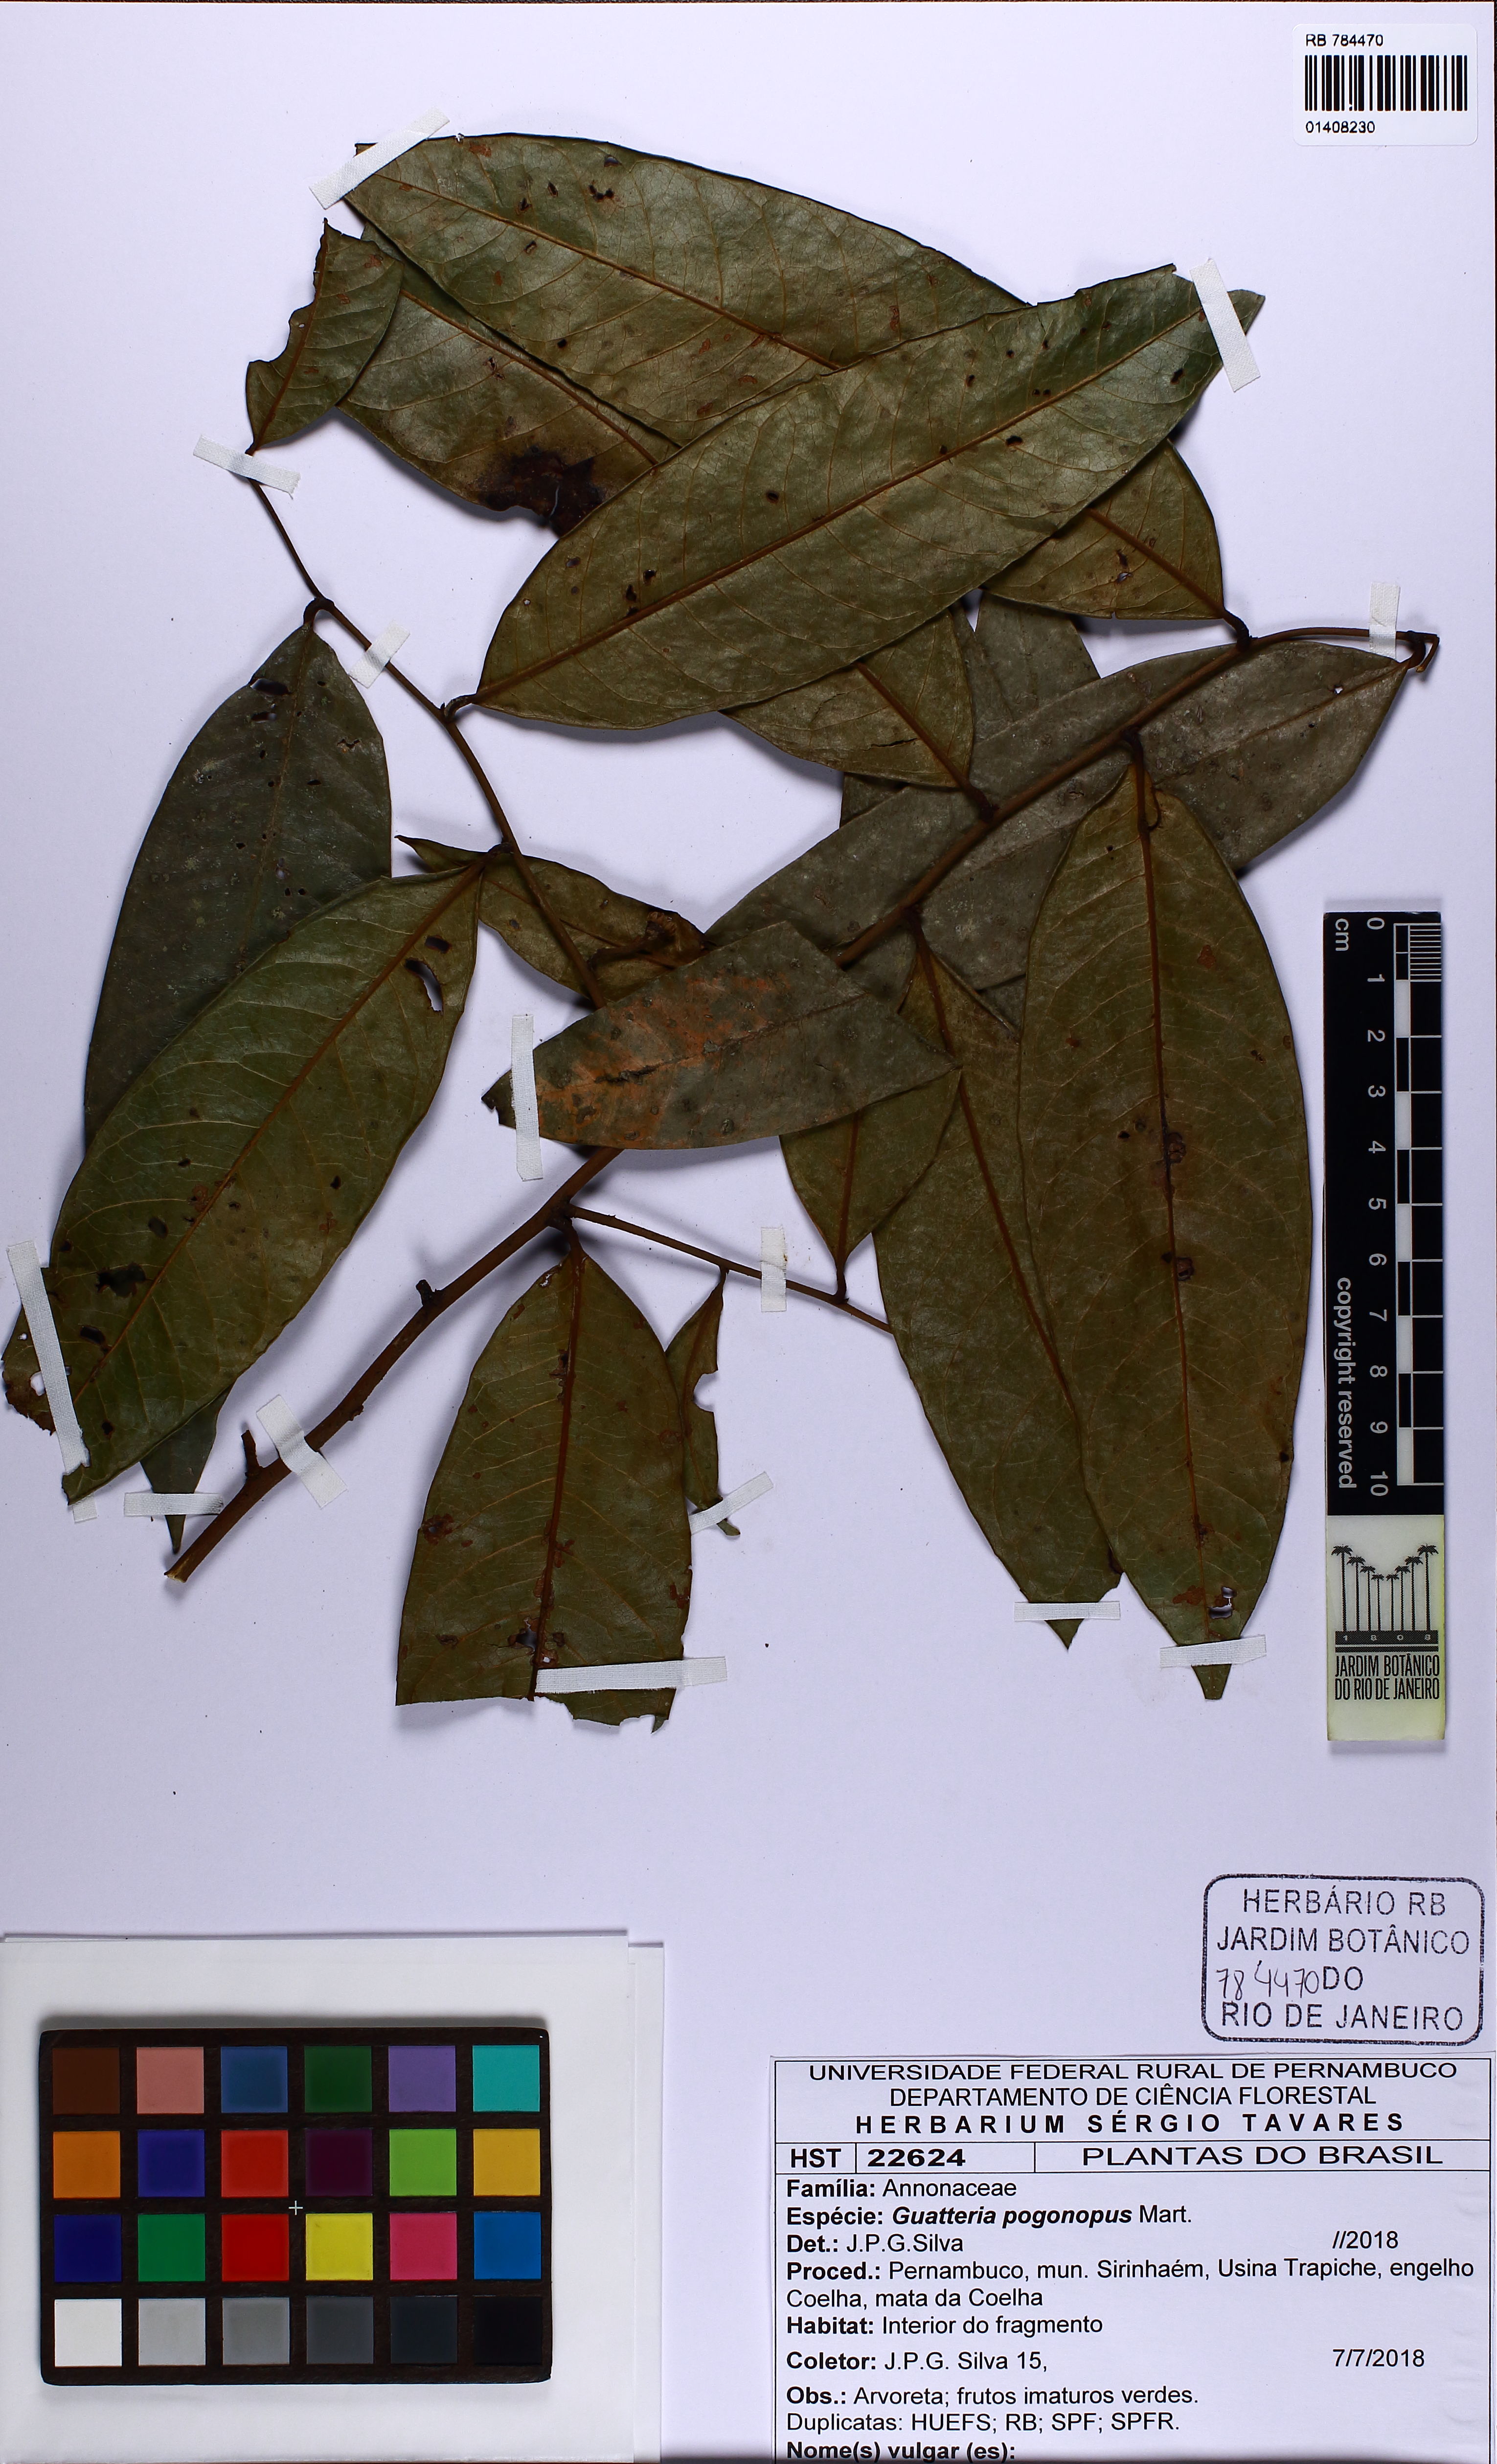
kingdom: Plantae
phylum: Tracheophyta
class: Magnoliopsida
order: Magnoliales
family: Annonaceae
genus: Guatteria
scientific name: Guatteria pogonopus
